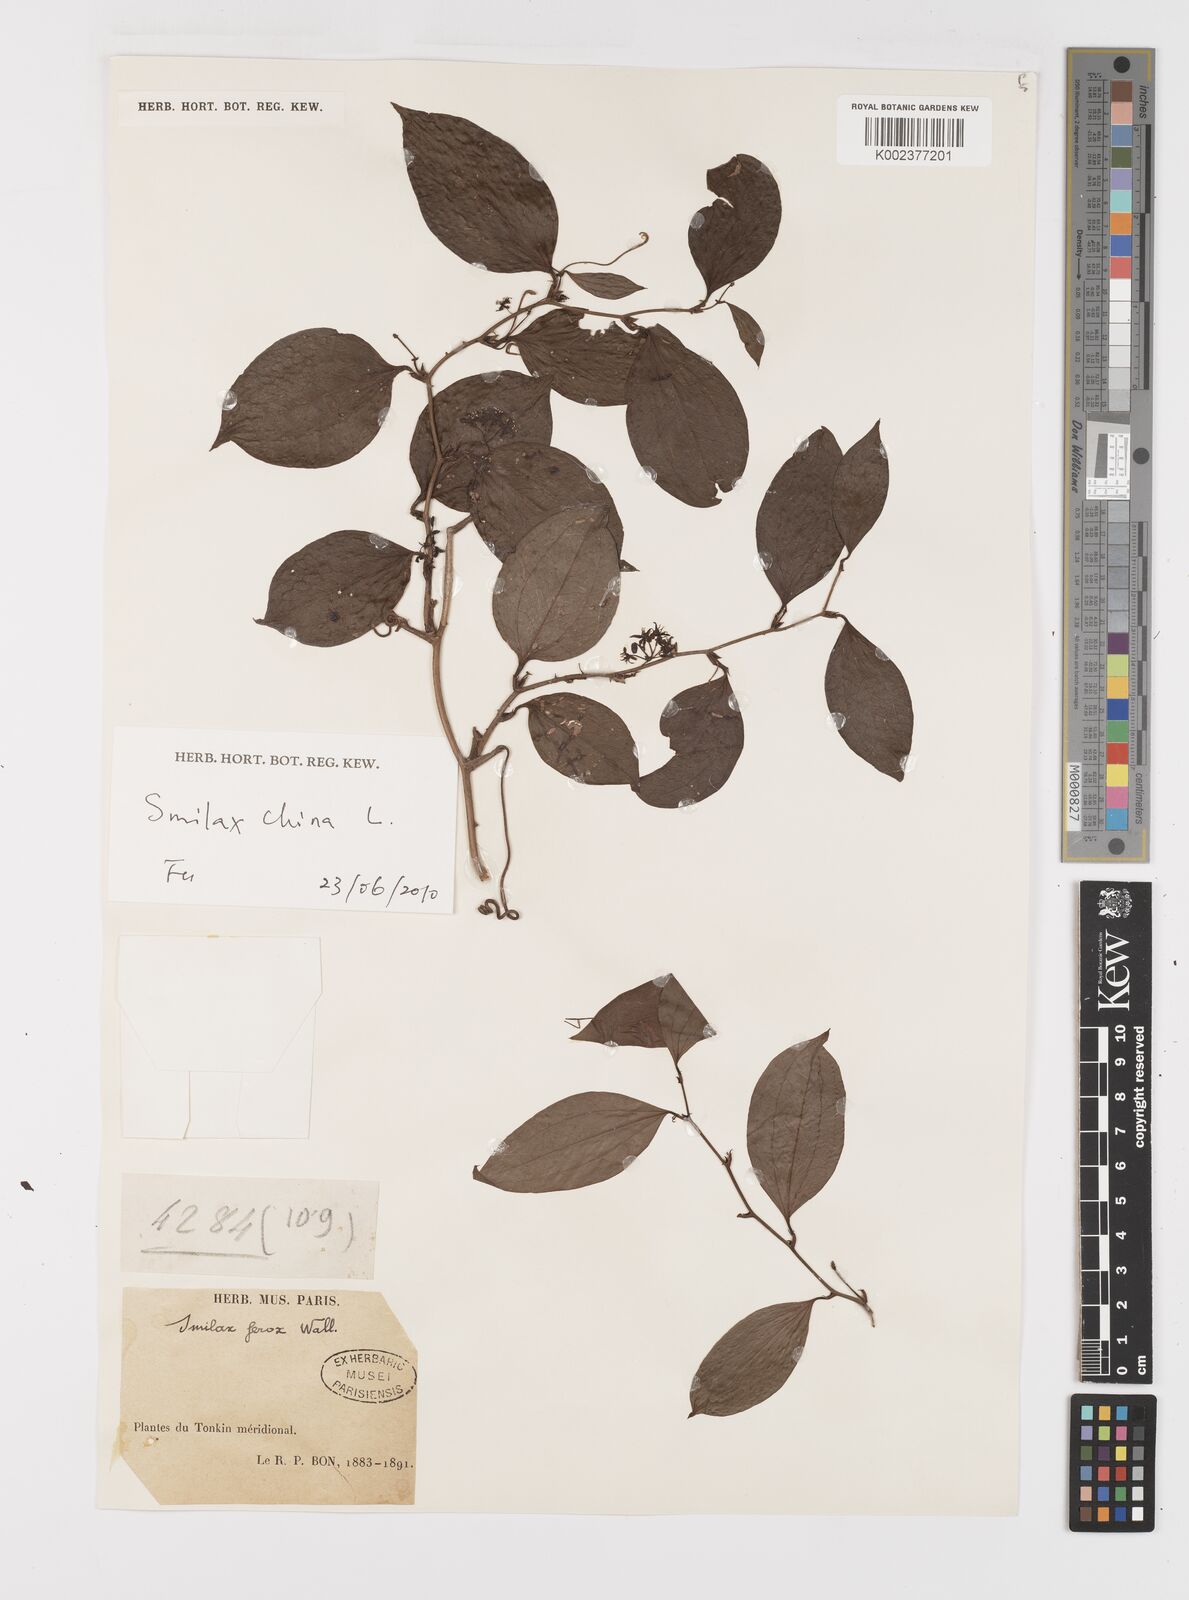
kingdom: Plantae
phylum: Tracheophyta
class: Liliopsida
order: Liliales
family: Smilacaceae
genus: Smilax
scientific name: Smilax ferox
